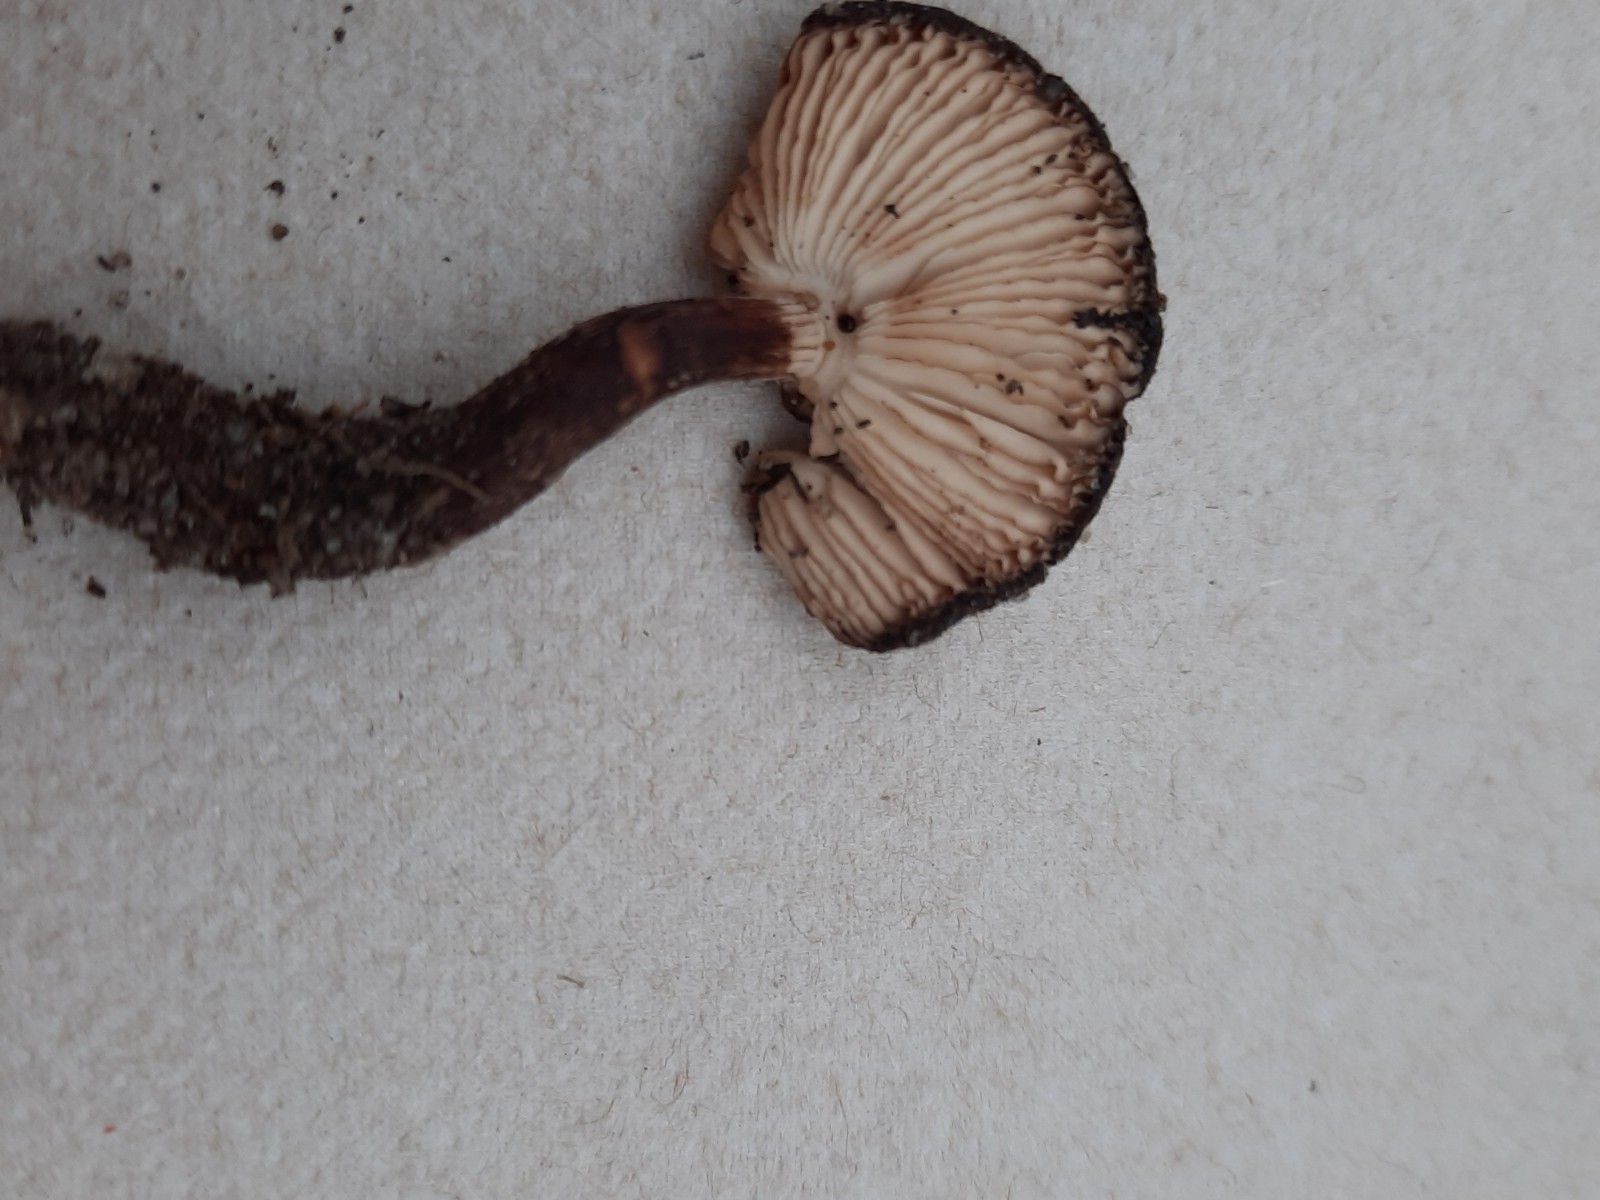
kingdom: Fungi
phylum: Basidiomycota
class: Agaricomycetes
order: Agaricales
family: Agaricaceae
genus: Leucoagaricus
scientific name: Leucoagaricus badhamii
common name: rødmende silkehat
